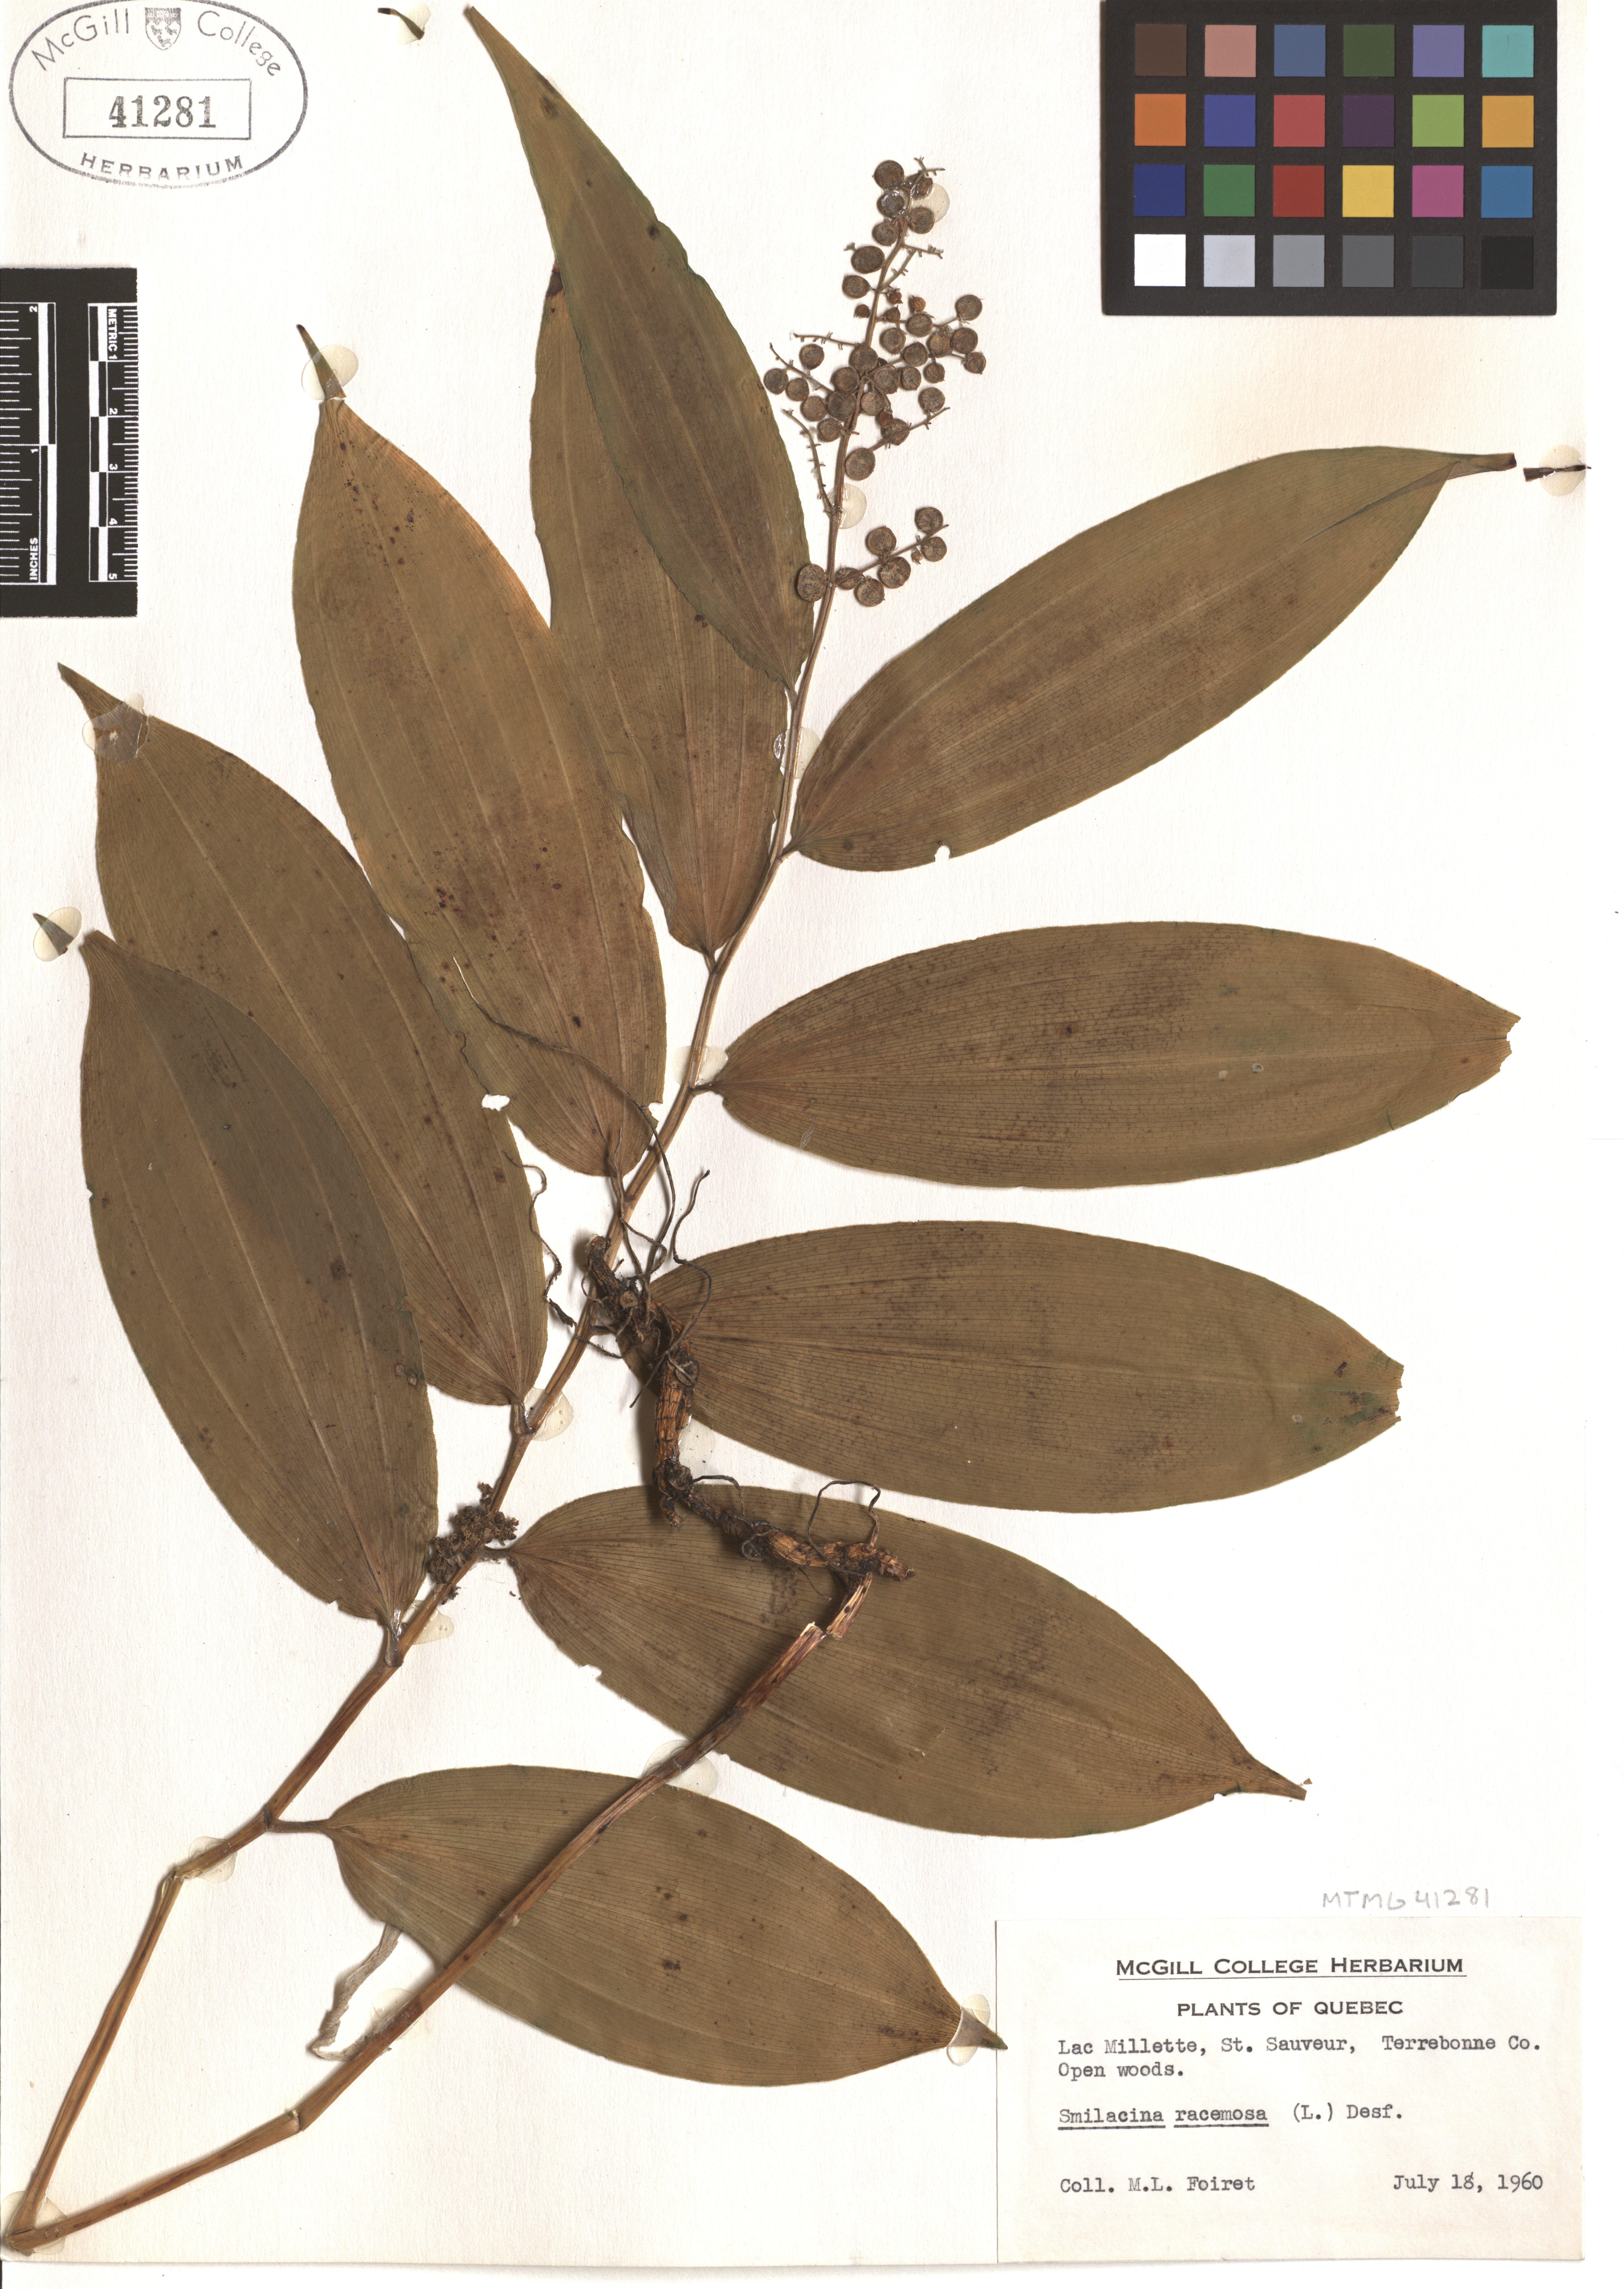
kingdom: Plantae
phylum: Tracheophyta
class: Liliopsida
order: Asparagales
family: Asparagaceae
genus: Maianthemum
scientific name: Maianthemum racemosum
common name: False spikenard
